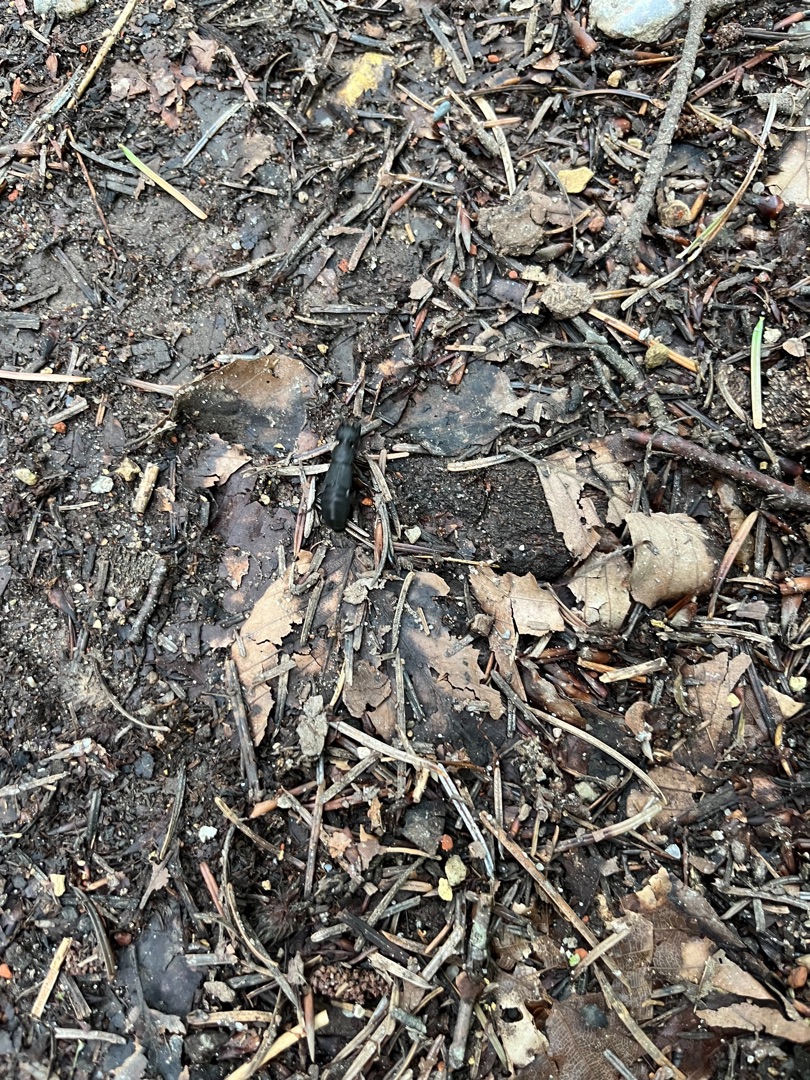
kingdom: Animalia
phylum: Arthropoda
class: Insecta
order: Coleoptera
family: Staphylinidae
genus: Ocypus
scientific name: Ocypus olens
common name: Stor rovbille
